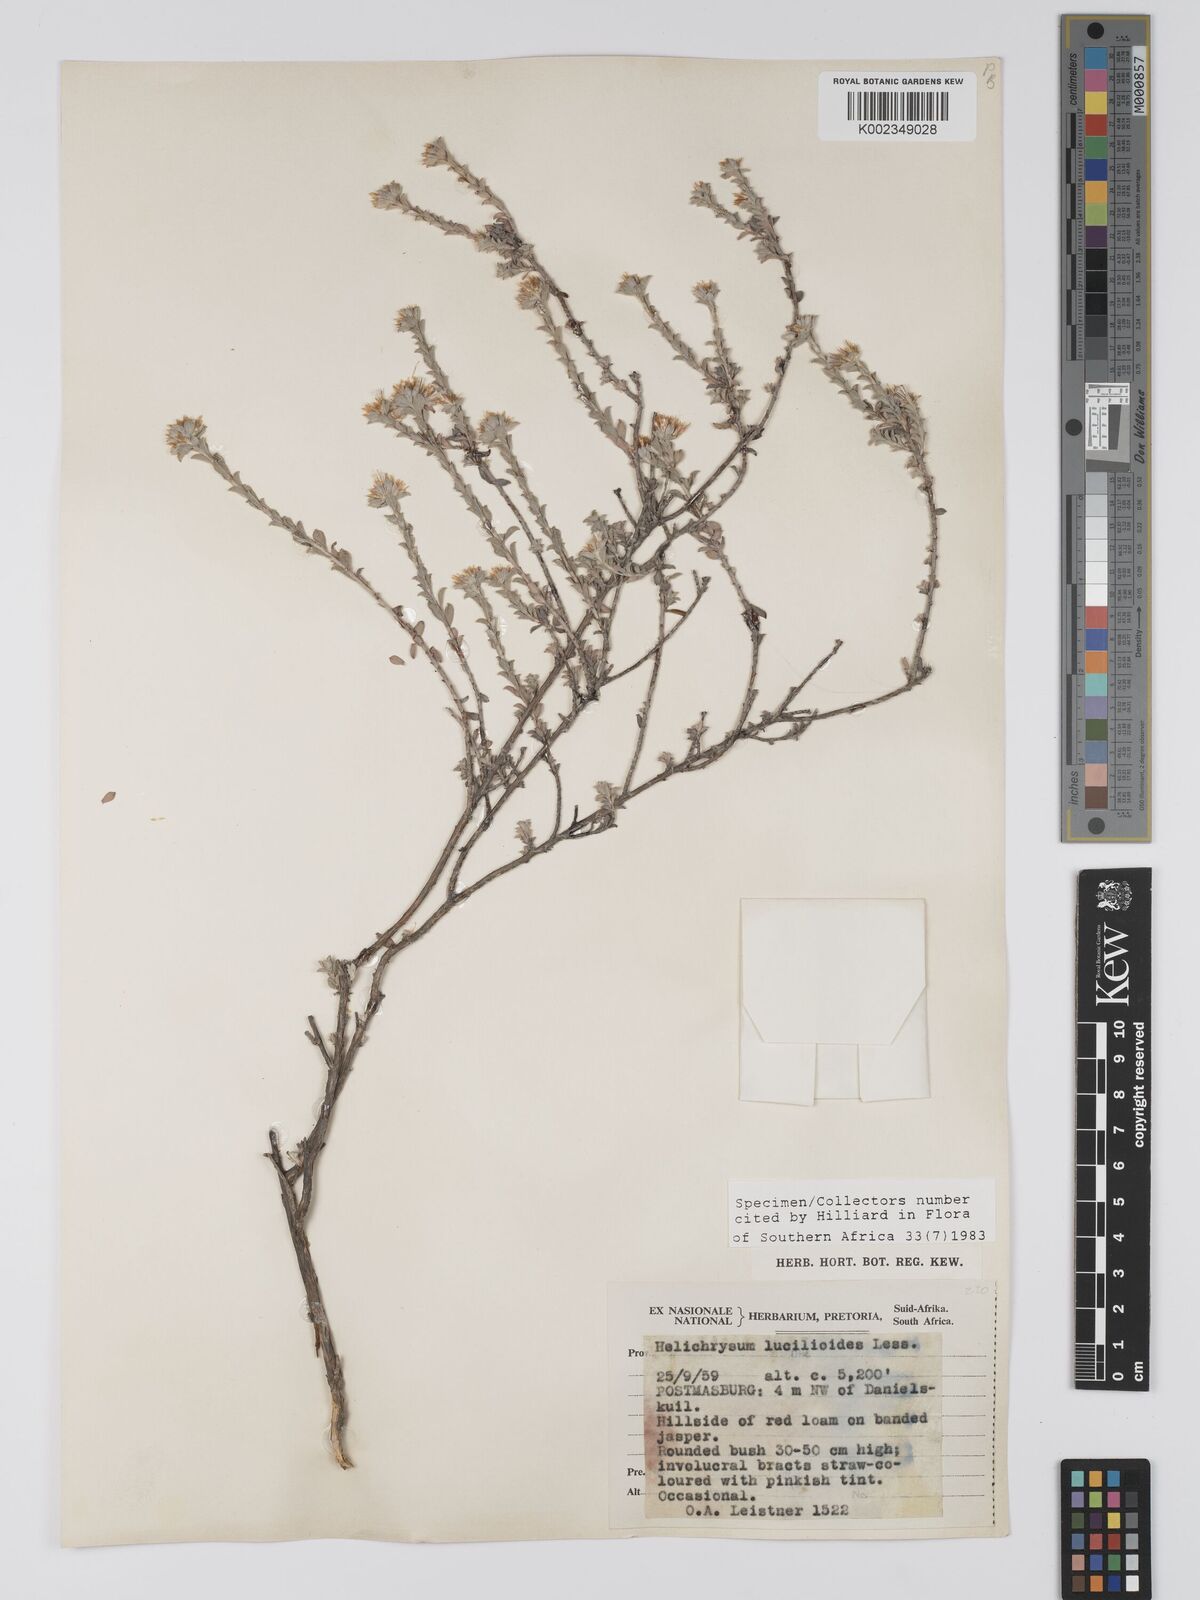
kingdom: Plantae
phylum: Tracheophyta
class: Magnoliopsida
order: Asterales
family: Asteraceae
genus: Helichrysum
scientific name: Helichrysum lucilioides
